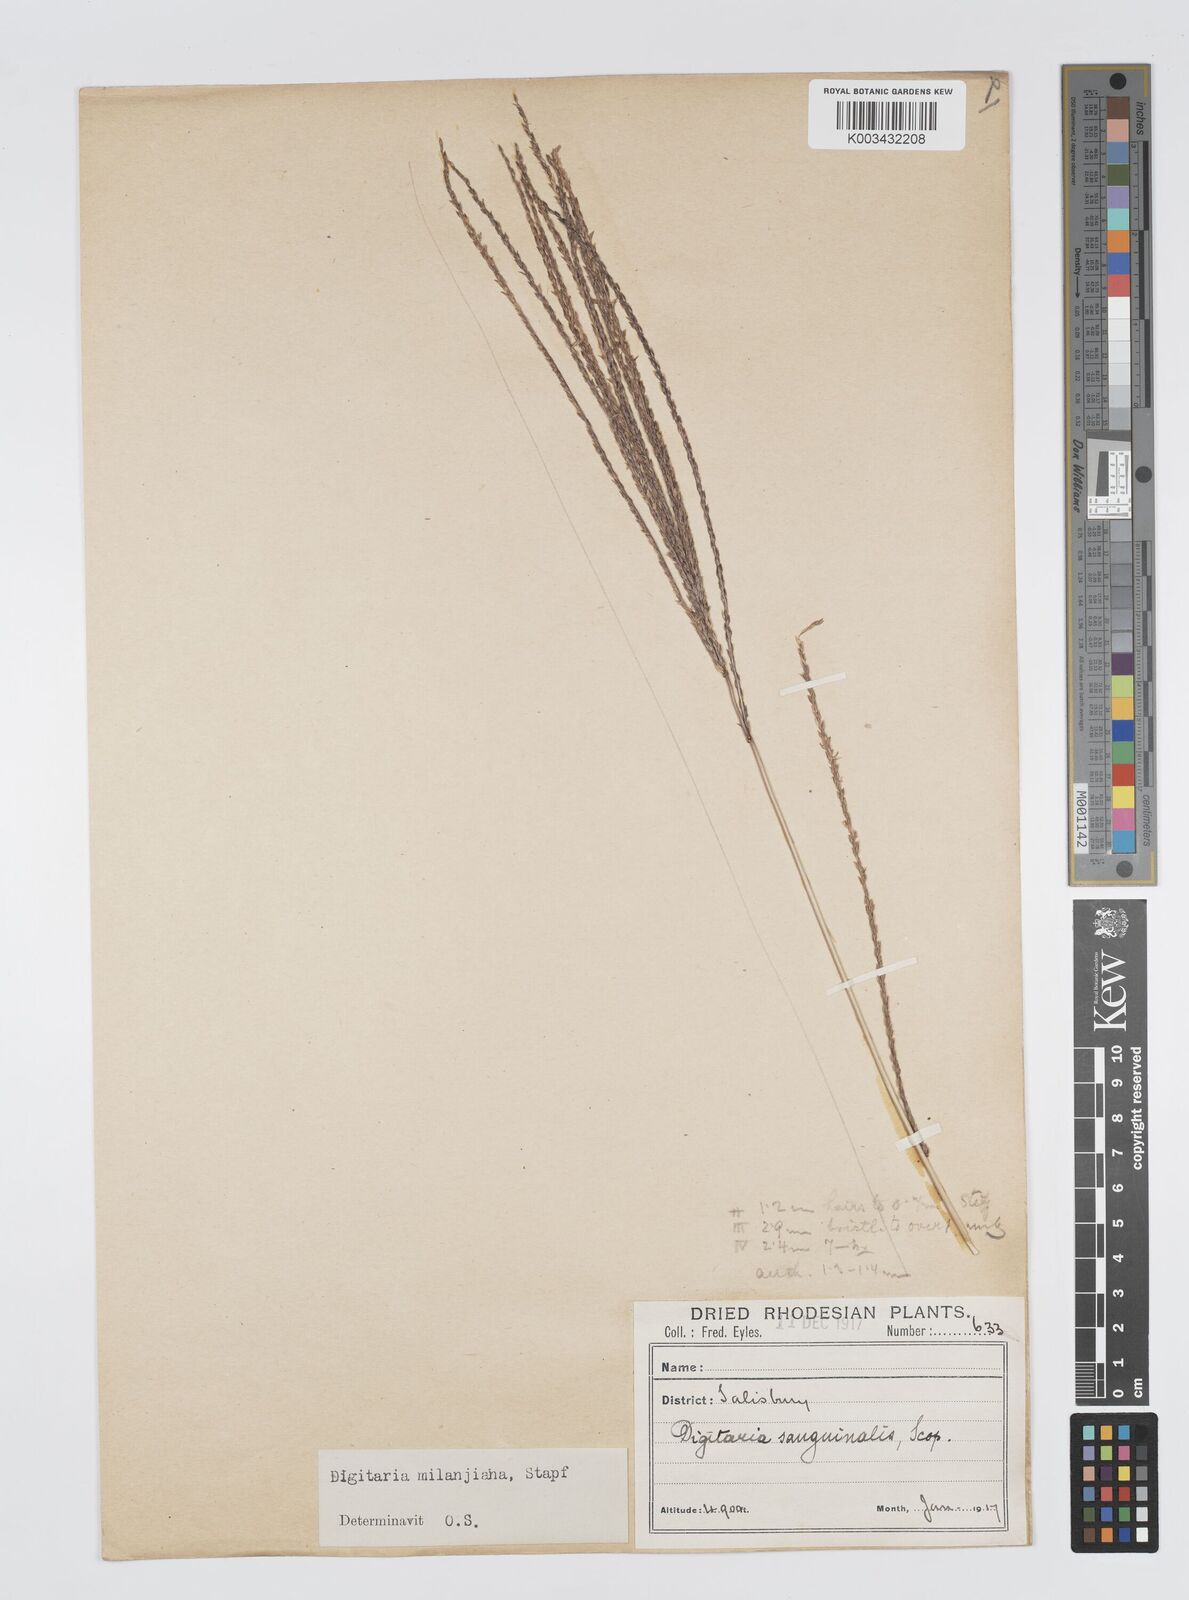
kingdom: Plantae
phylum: Tracheophyta
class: Liliopsida
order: Poales
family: Poaceae
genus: Digitaria
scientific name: Digitaria milanjiana
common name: Madagascar crabgrass
